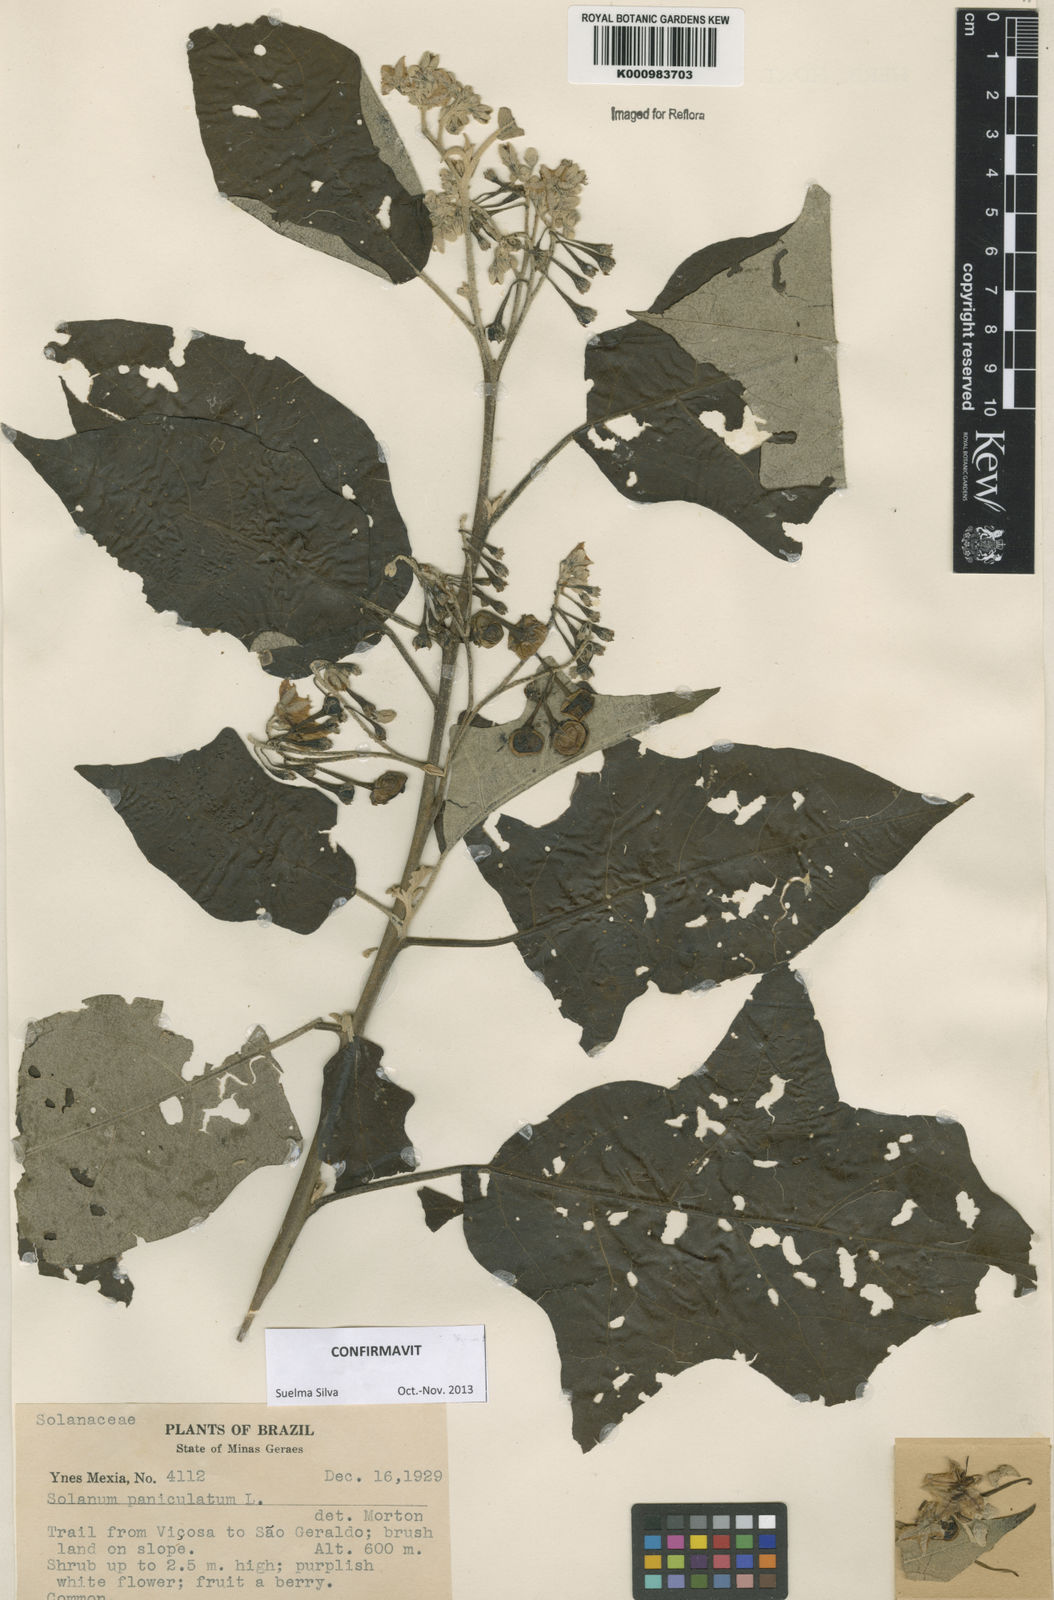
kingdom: Plantae
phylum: Tracheophyta
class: Magnoliopsida
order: Solanales
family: Solanaceae
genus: Solanum
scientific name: Solanum paniculatum
